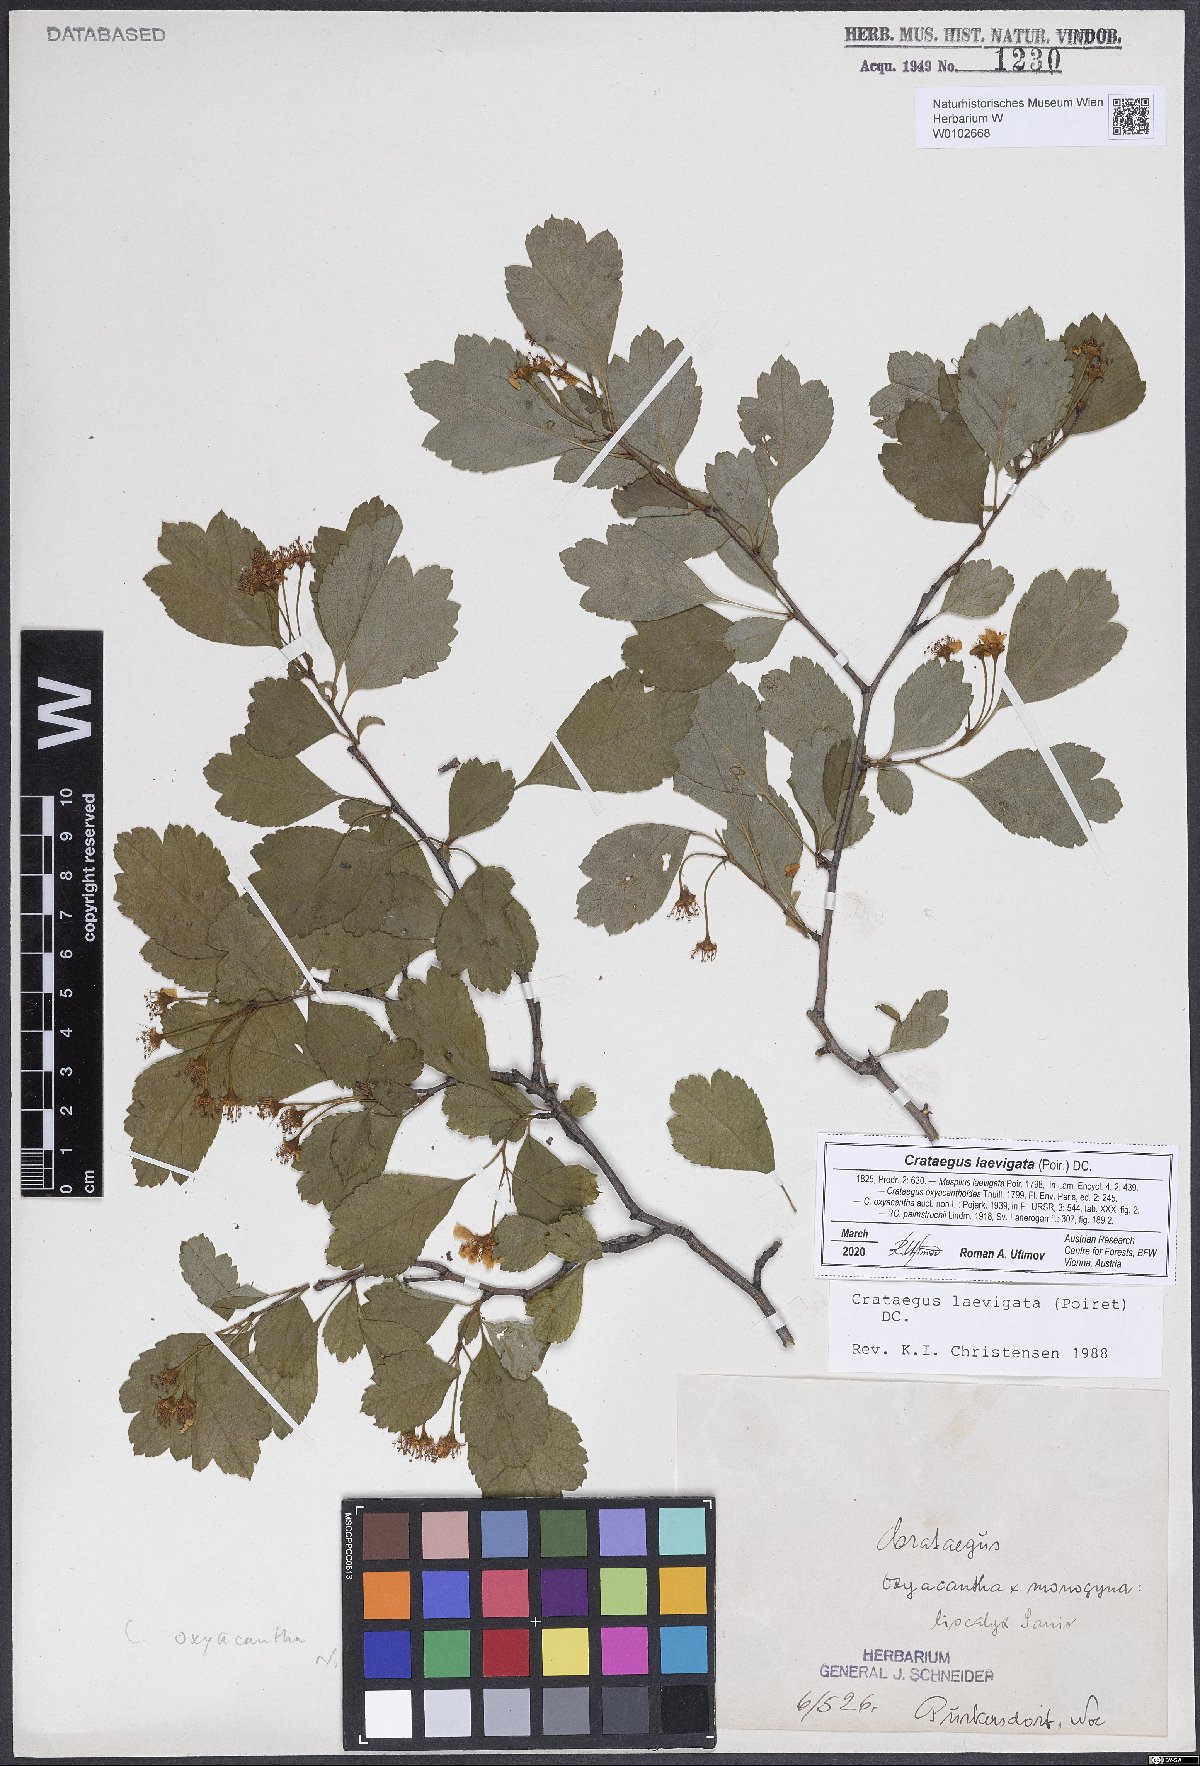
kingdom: Plantae
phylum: Tracheophyta
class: Magnoliopsida
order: Rosales
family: Rosaceae
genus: Crataegus
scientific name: Crataegus laevigata
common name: Midland hawthorn
